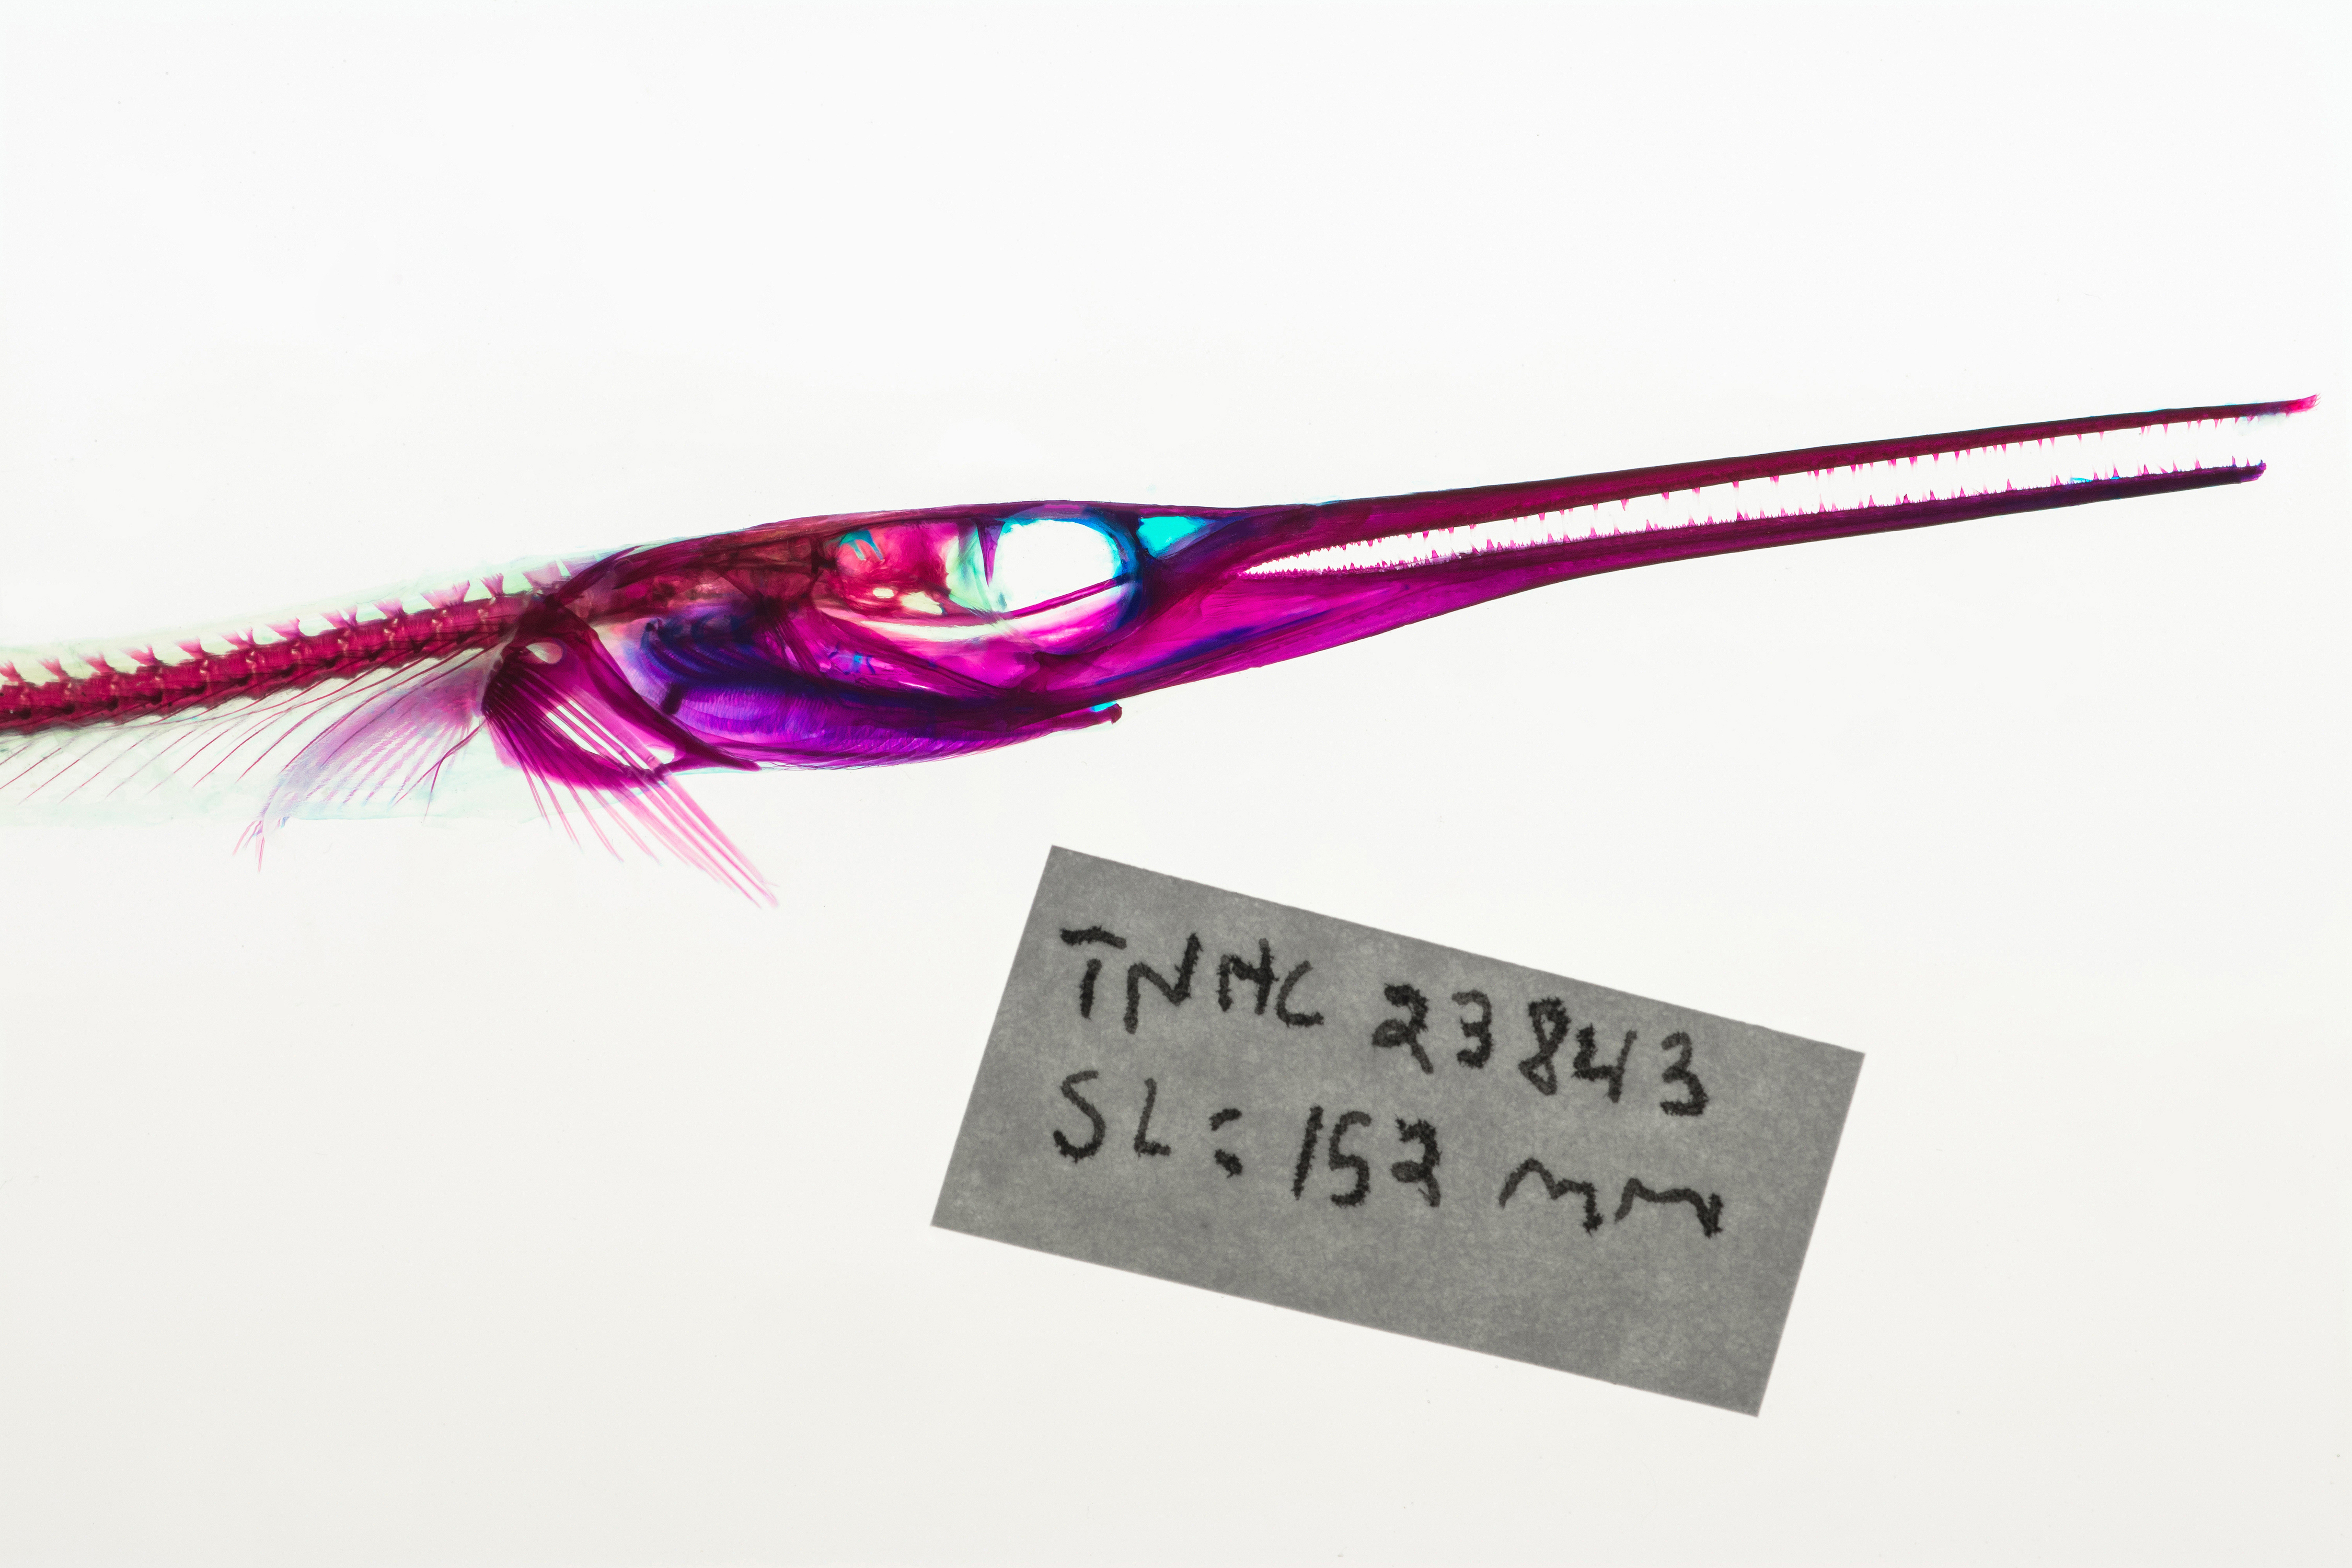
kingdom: Animalia
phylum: Chordata
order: Beloniformes
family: Belonidae
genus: Strongylura
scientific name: Strongylura marina
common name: Atlantic needlefish
